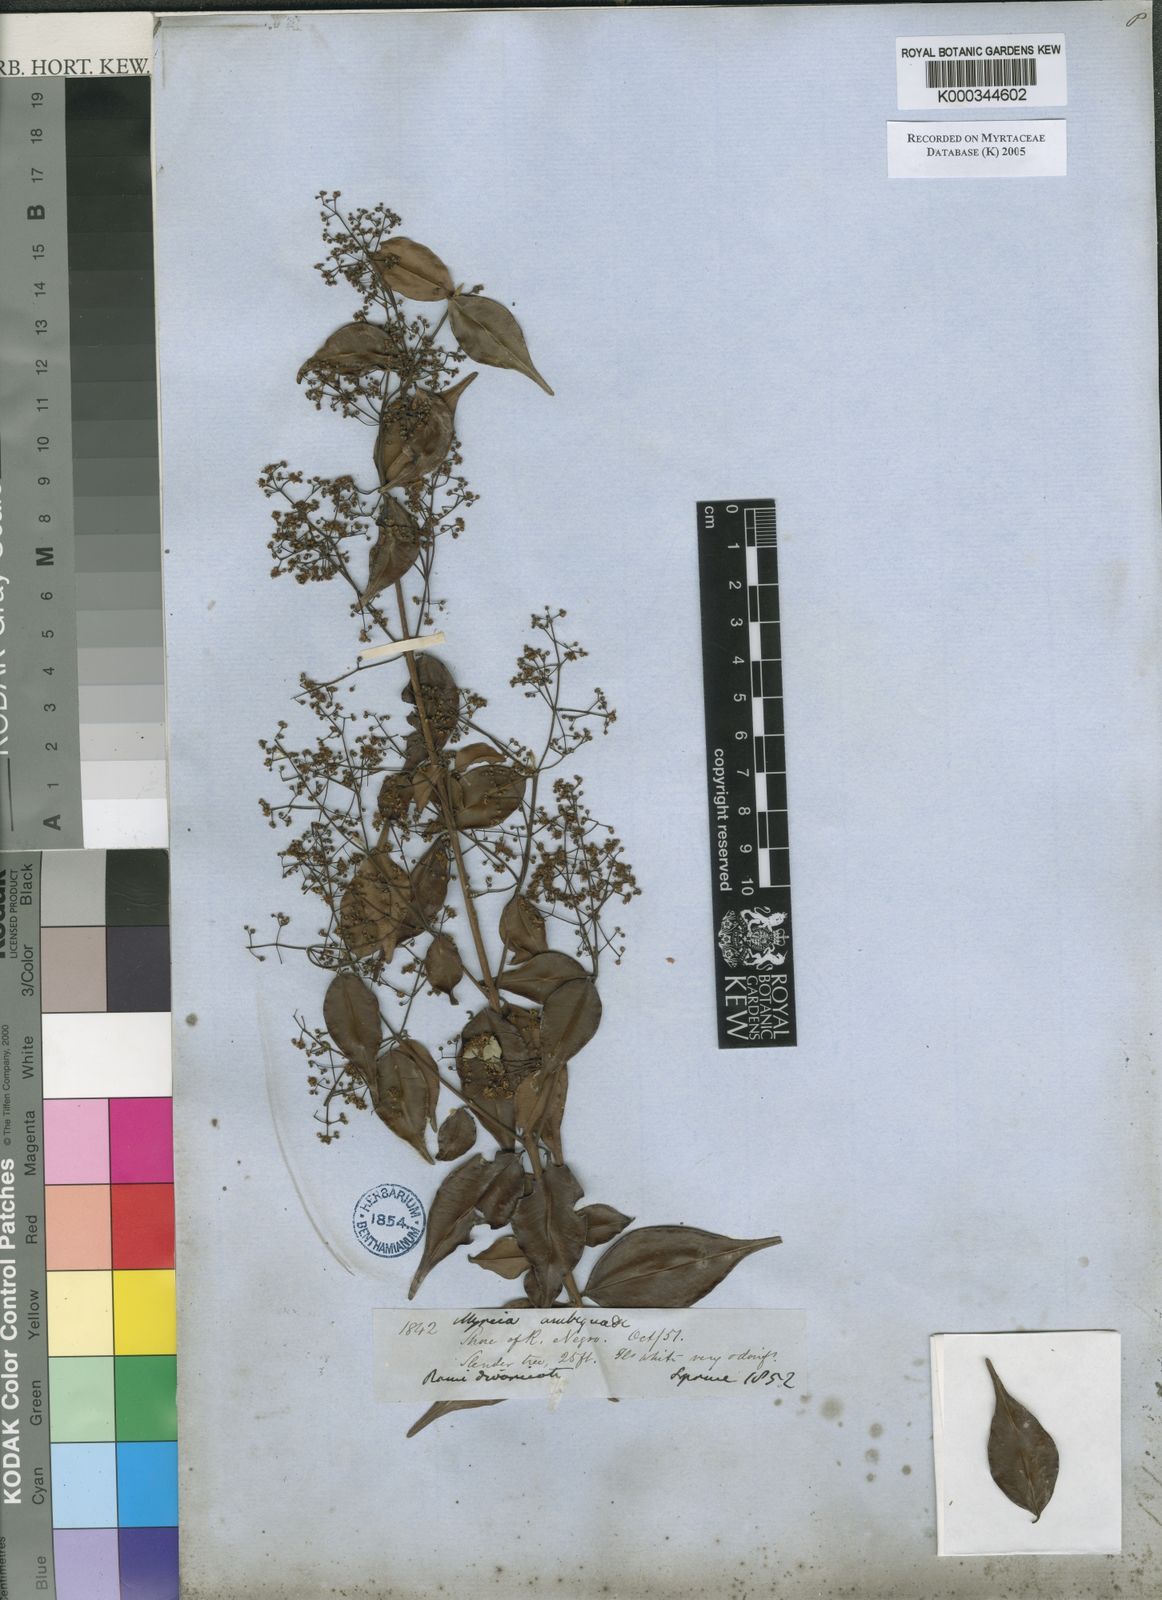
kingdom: Plantae
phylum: Tracheophyta
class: Magnoliopsida
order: Myrtales
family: Myrtaceae
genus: Myrcia
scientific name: Myrcia sylvatica
